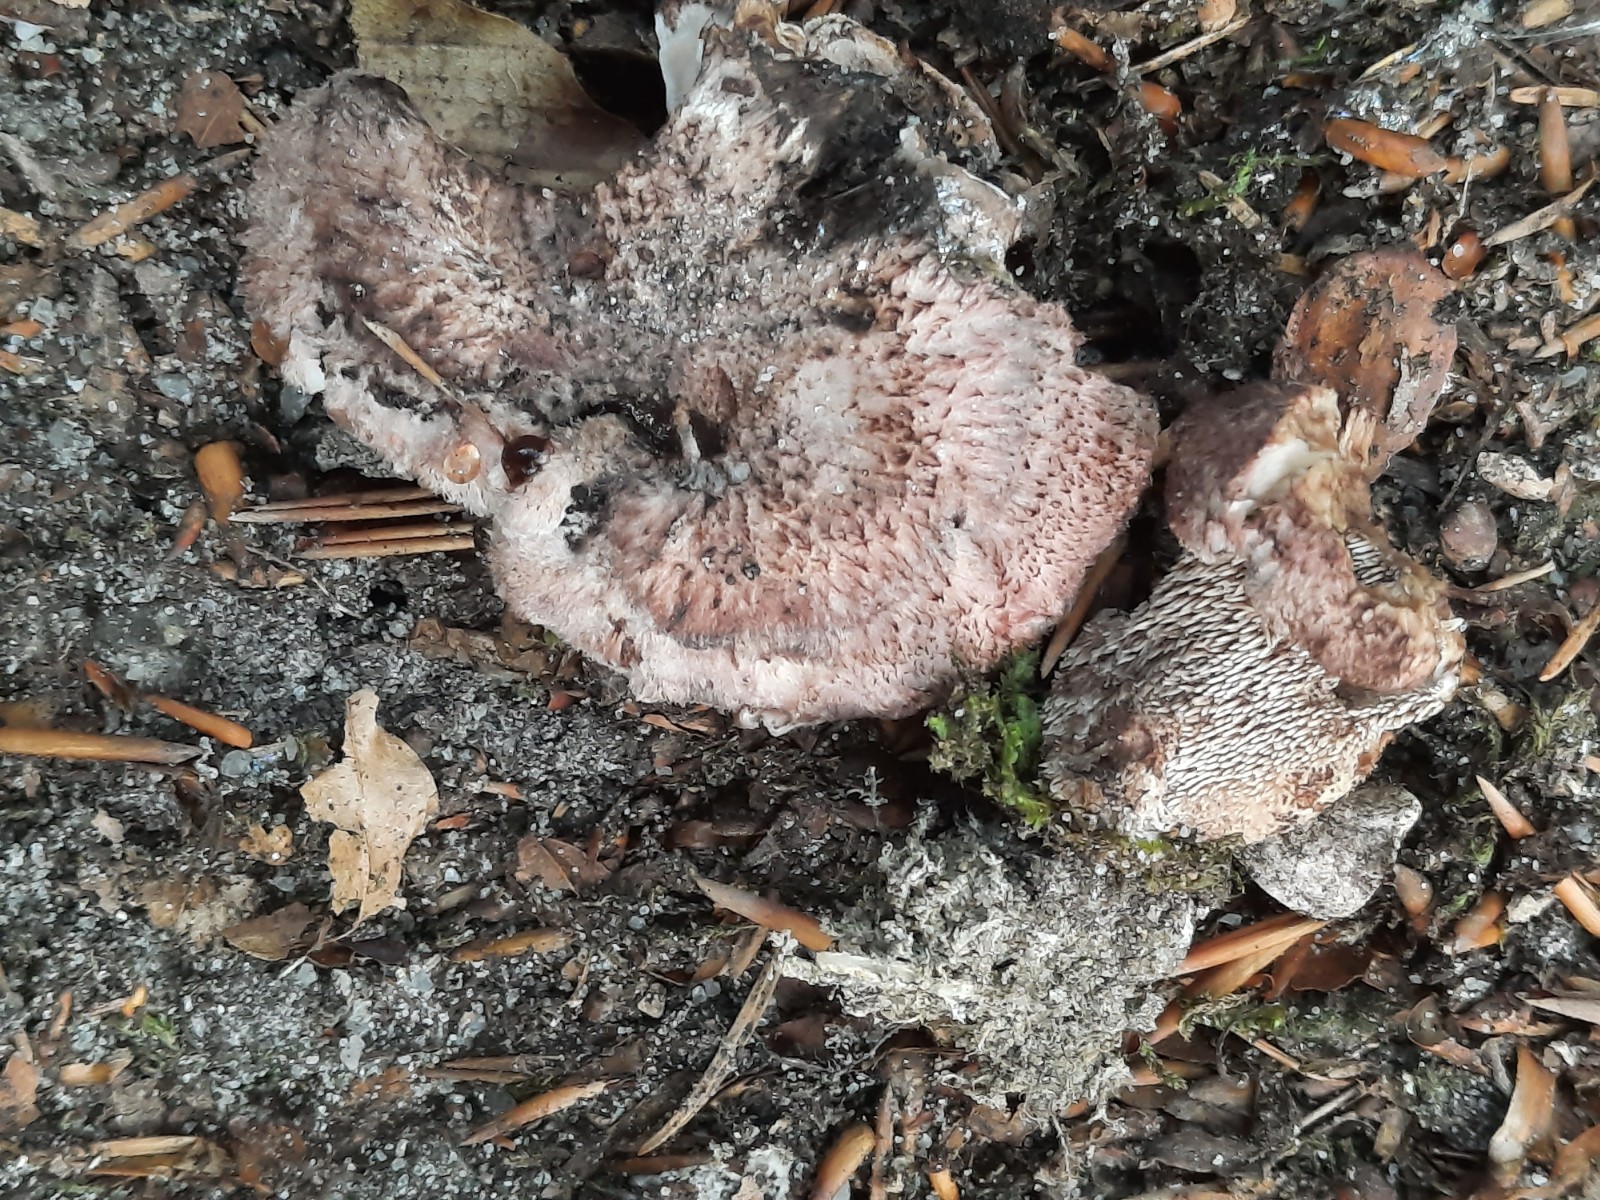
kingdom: Fungi
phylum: Basidiomycota
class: Agaricomycetes
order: Thelephorales
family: Bankeraceae
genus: Hydnellum
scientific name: Hydnellum lepidum
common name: skrænt-korkpigsvamp
